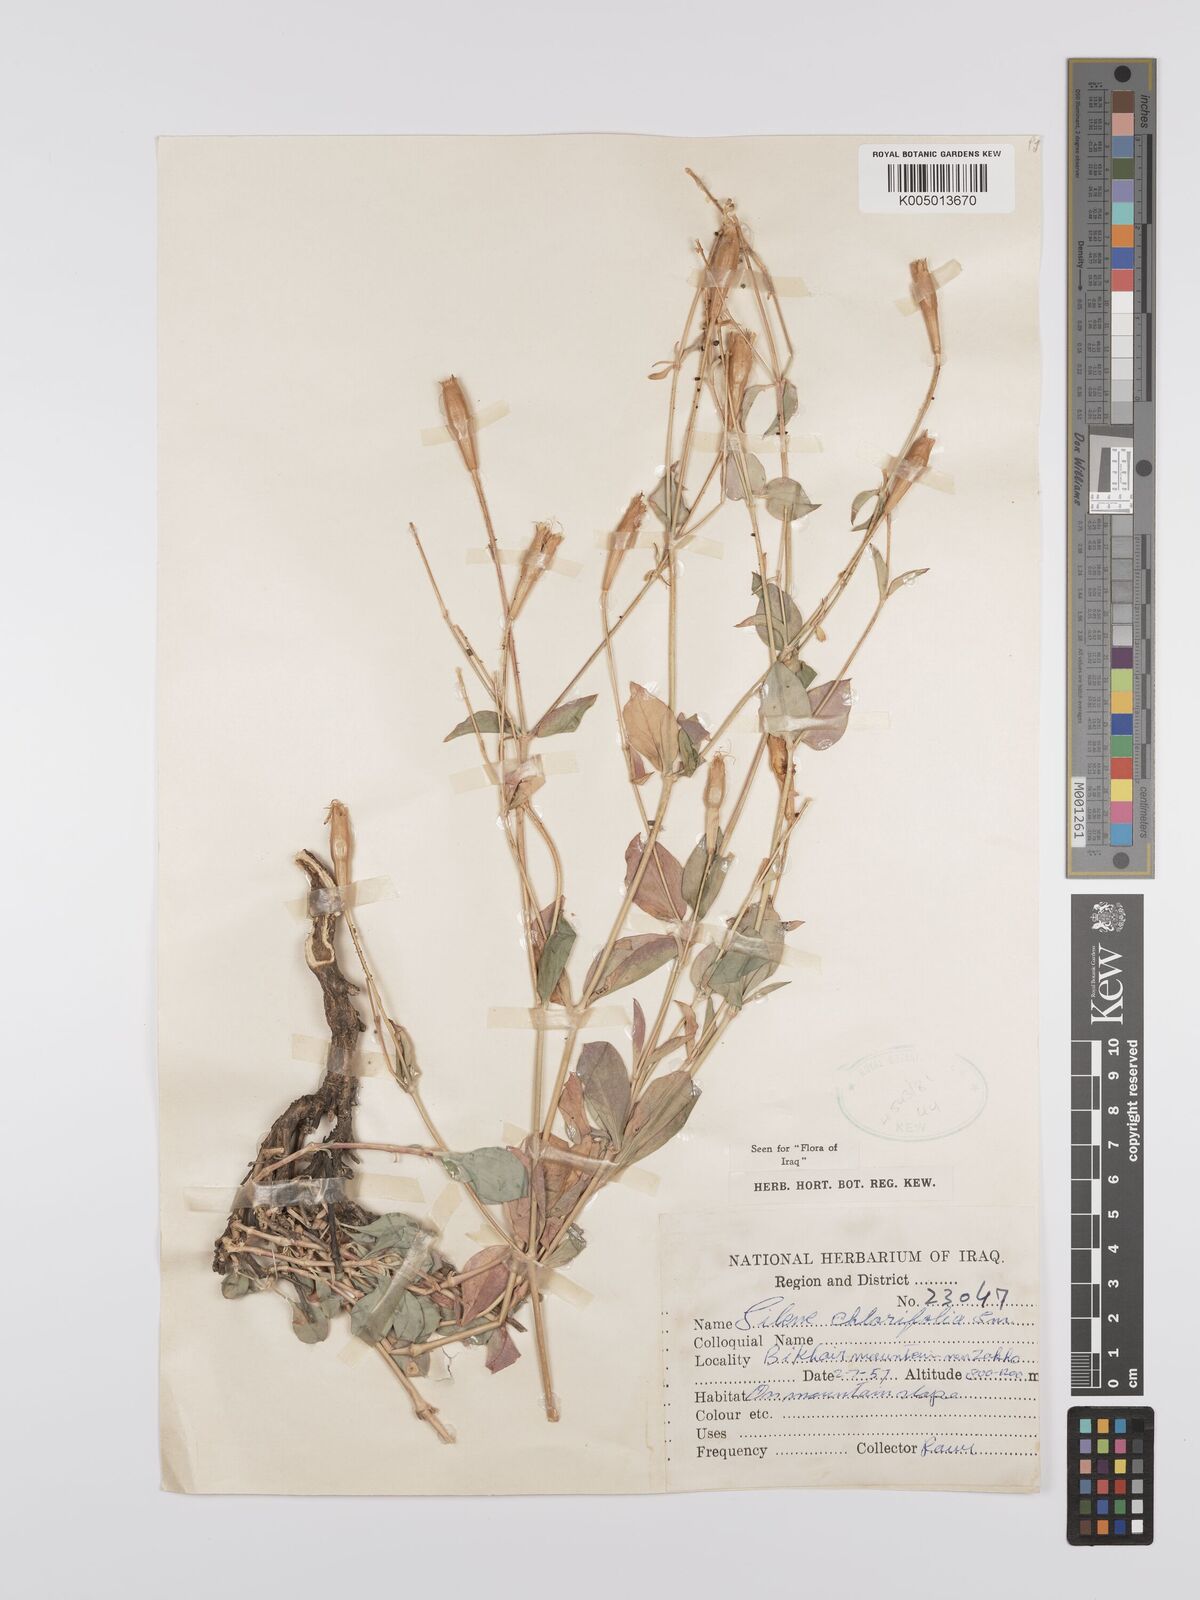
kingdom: Plantae
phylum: Tracheophyta
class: Magnoliopsida
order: Caryophyllales
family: Caryophyllaceae
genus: Silene
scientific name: Silene chlorifolia
